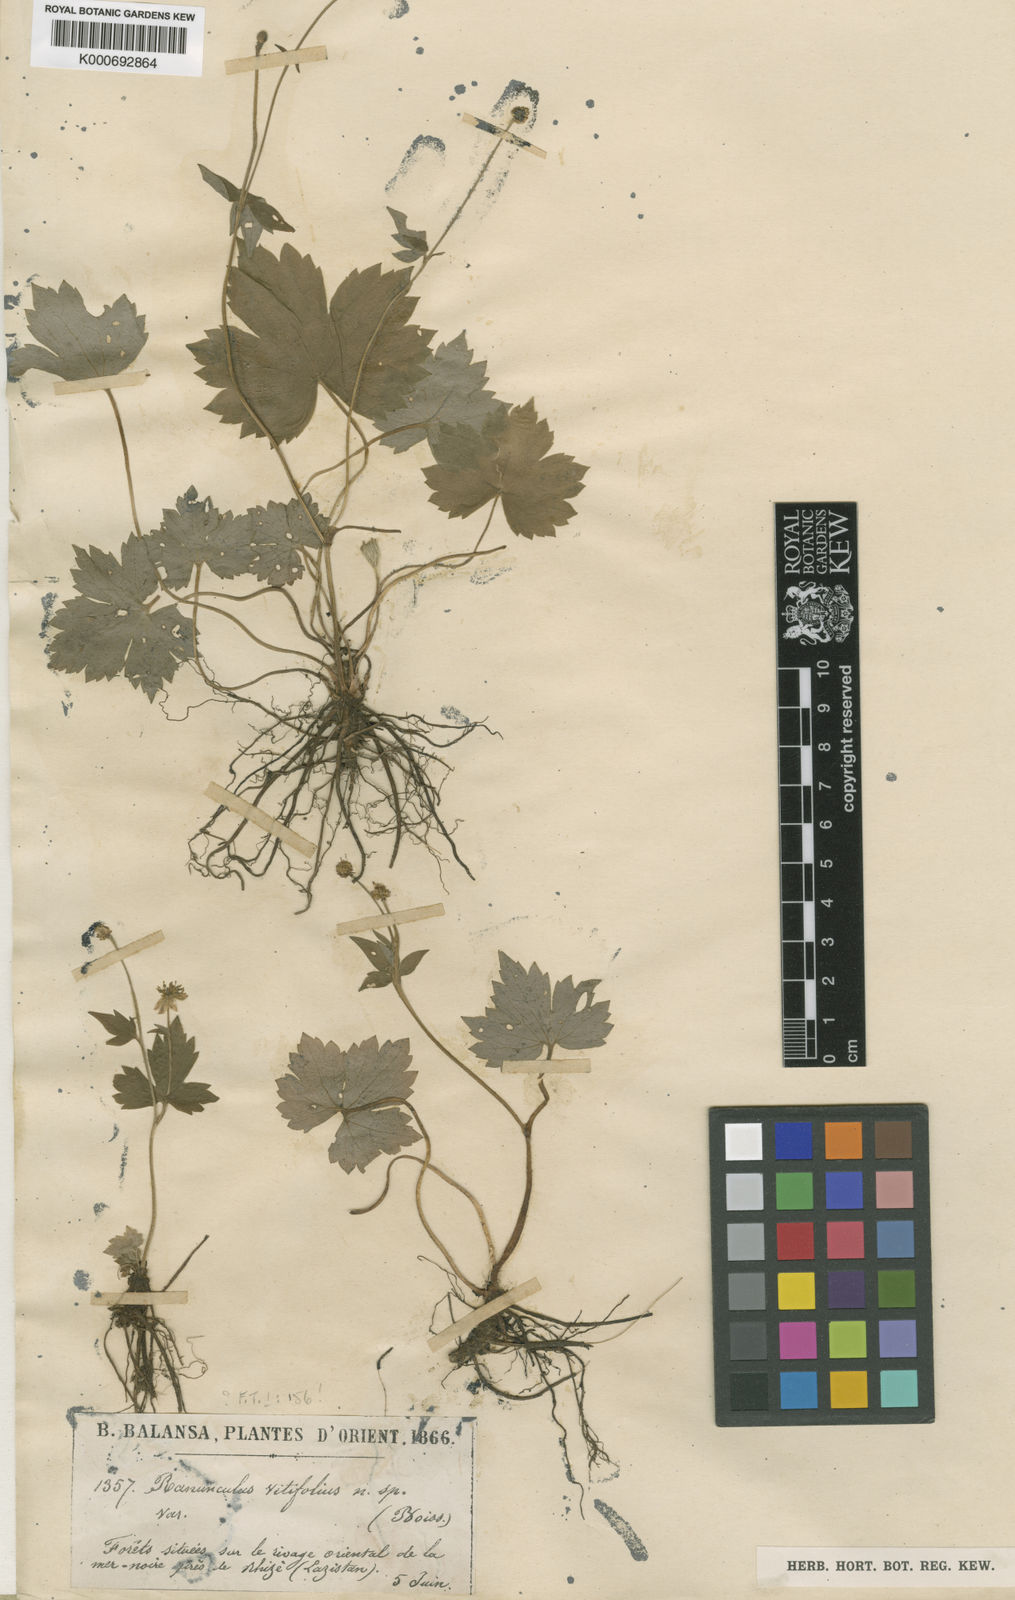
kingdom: Plantae
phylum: Tracheophyta
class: Magnoliopsida
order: Ranunculales
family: Ranunculaceae
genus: Ranunculus
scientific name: Ranunculus cappadocicus
